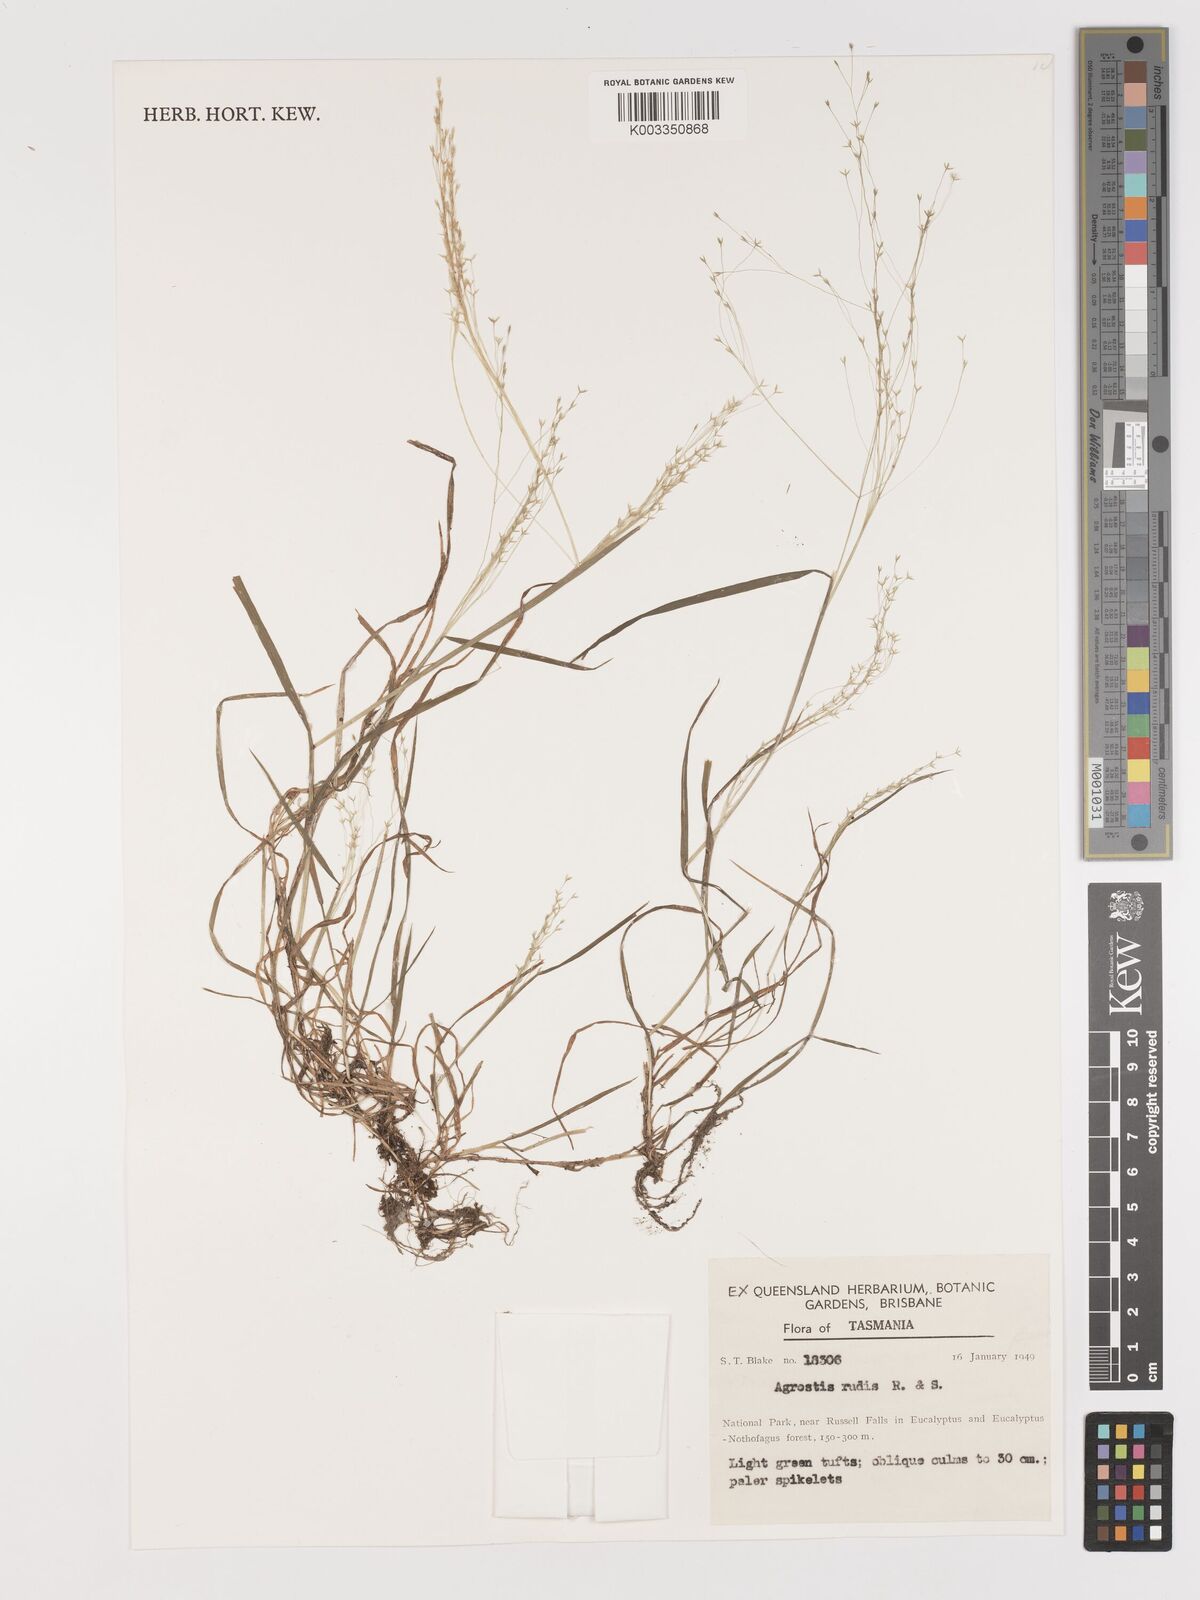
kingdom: Plantae
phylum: Tracheophyta
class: Liliopsida
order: Poales
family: Poaceae
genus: Lachnagrostis
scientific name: Lachnagrostis rudis
